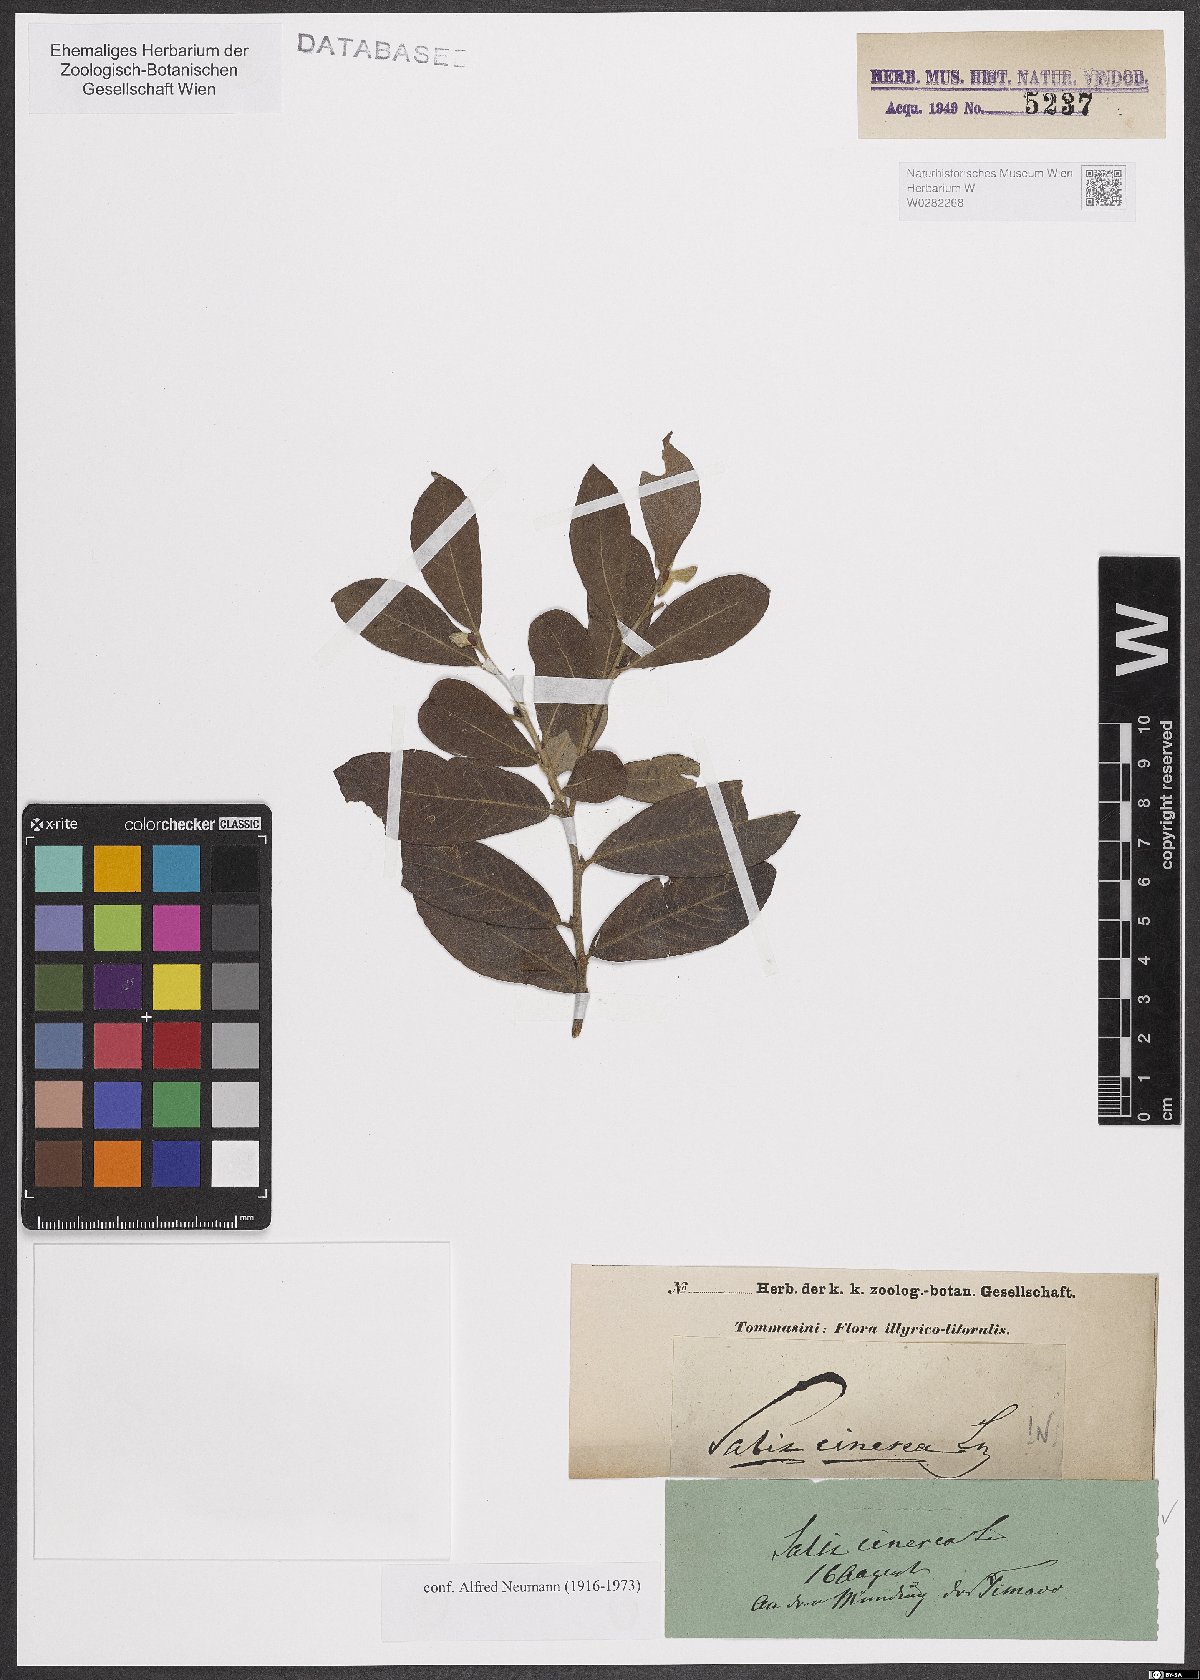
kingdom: Plantae
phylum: Tracheophyta
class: Magnoliopsida
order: Malpighiales
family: Salicaceae
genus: Salix
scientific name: Salix cinerea
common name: Common sallow
